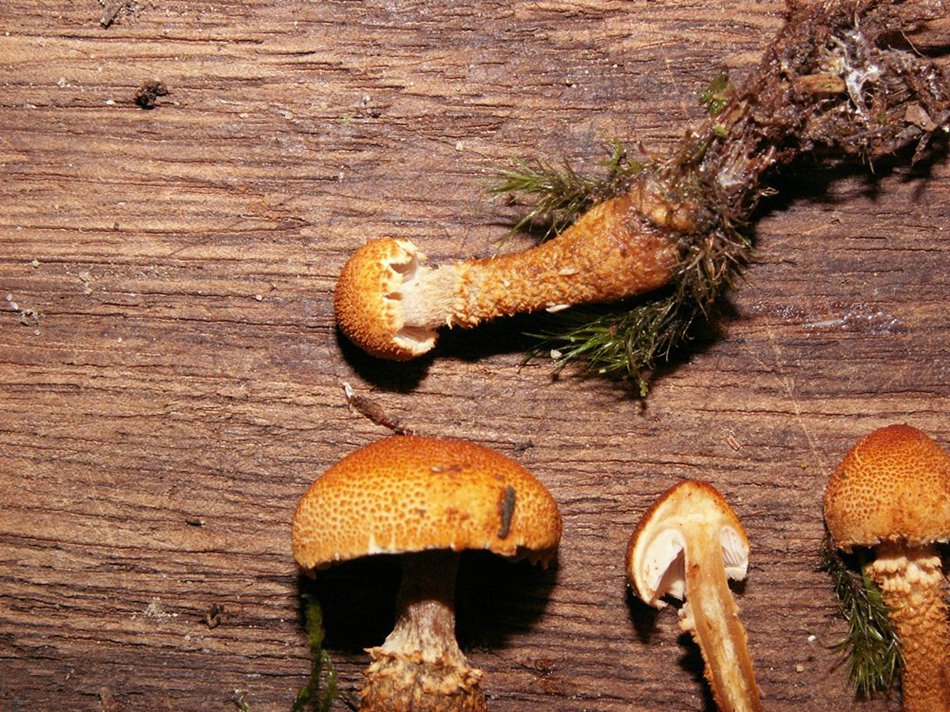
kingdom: Fungi
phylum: Basidiomycota
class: Agaricomycetes
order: Agaricales
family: Tricholomataceae
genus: Cystoderma
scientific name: Cystoderma amianthinum
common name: okkergul grynhat
